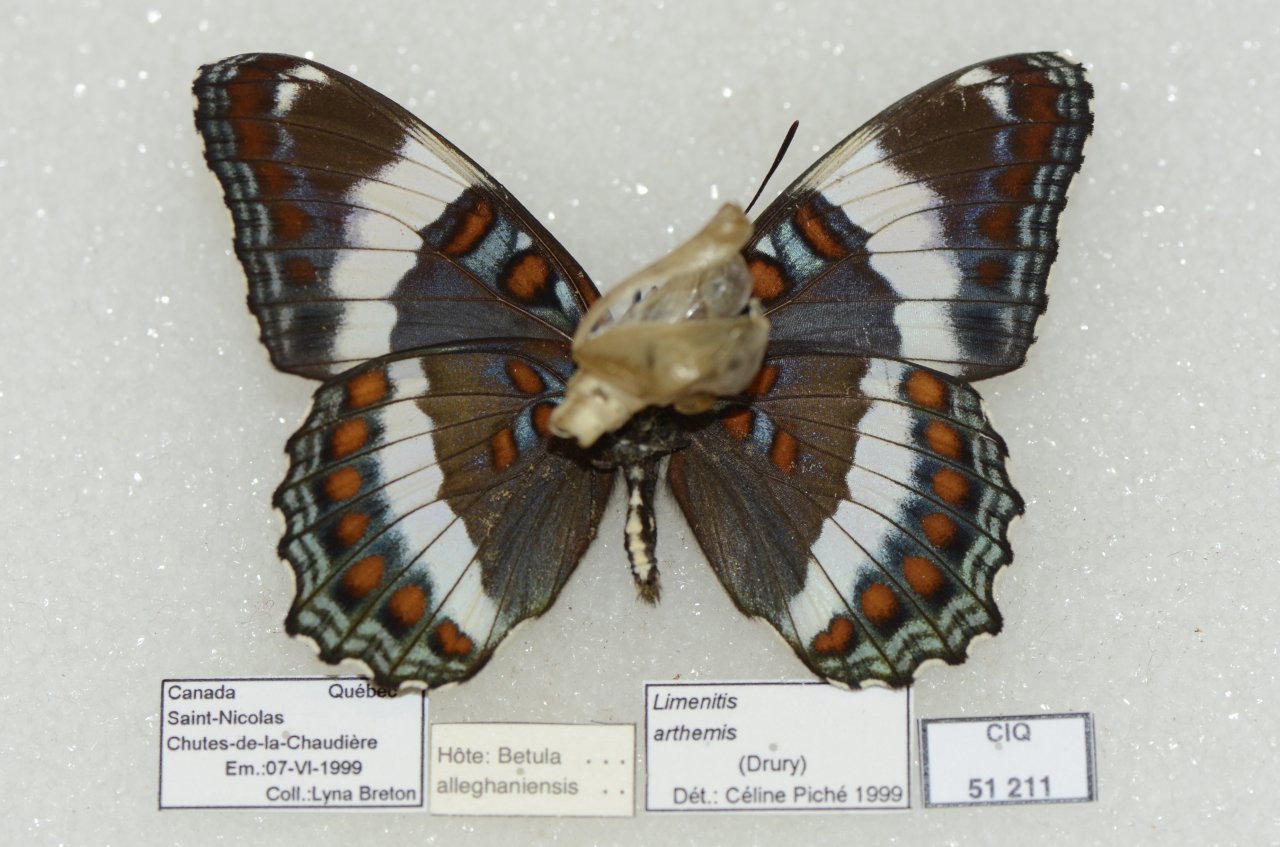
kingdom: Animalia
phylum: Arthropoda
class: Insecta
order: Lepidoptera
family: Nymphalidae
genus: Limenitis
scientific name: Limenitis arthemis
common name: Red-spotted Admiral
